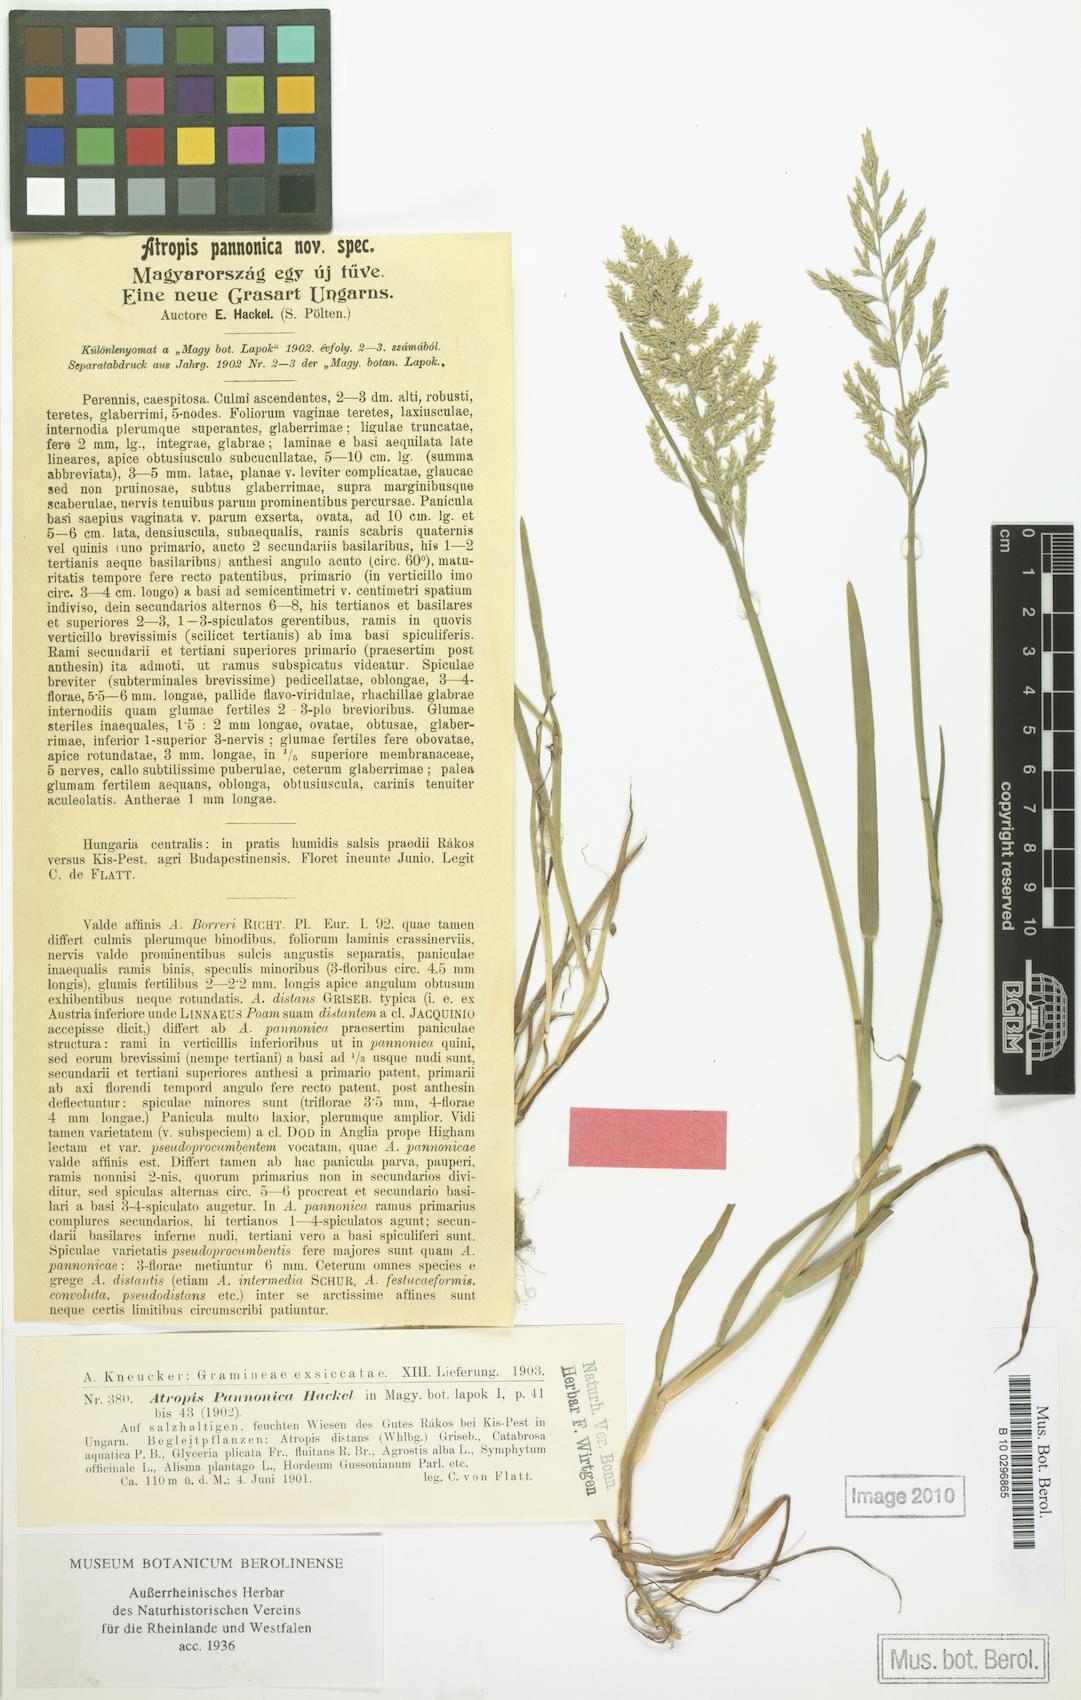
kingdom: Plantae
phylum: Tracheophyta
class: Liliopsida
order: Poales
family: Poaceae
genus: Puccinellia
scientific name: Puccinellia pannonica
